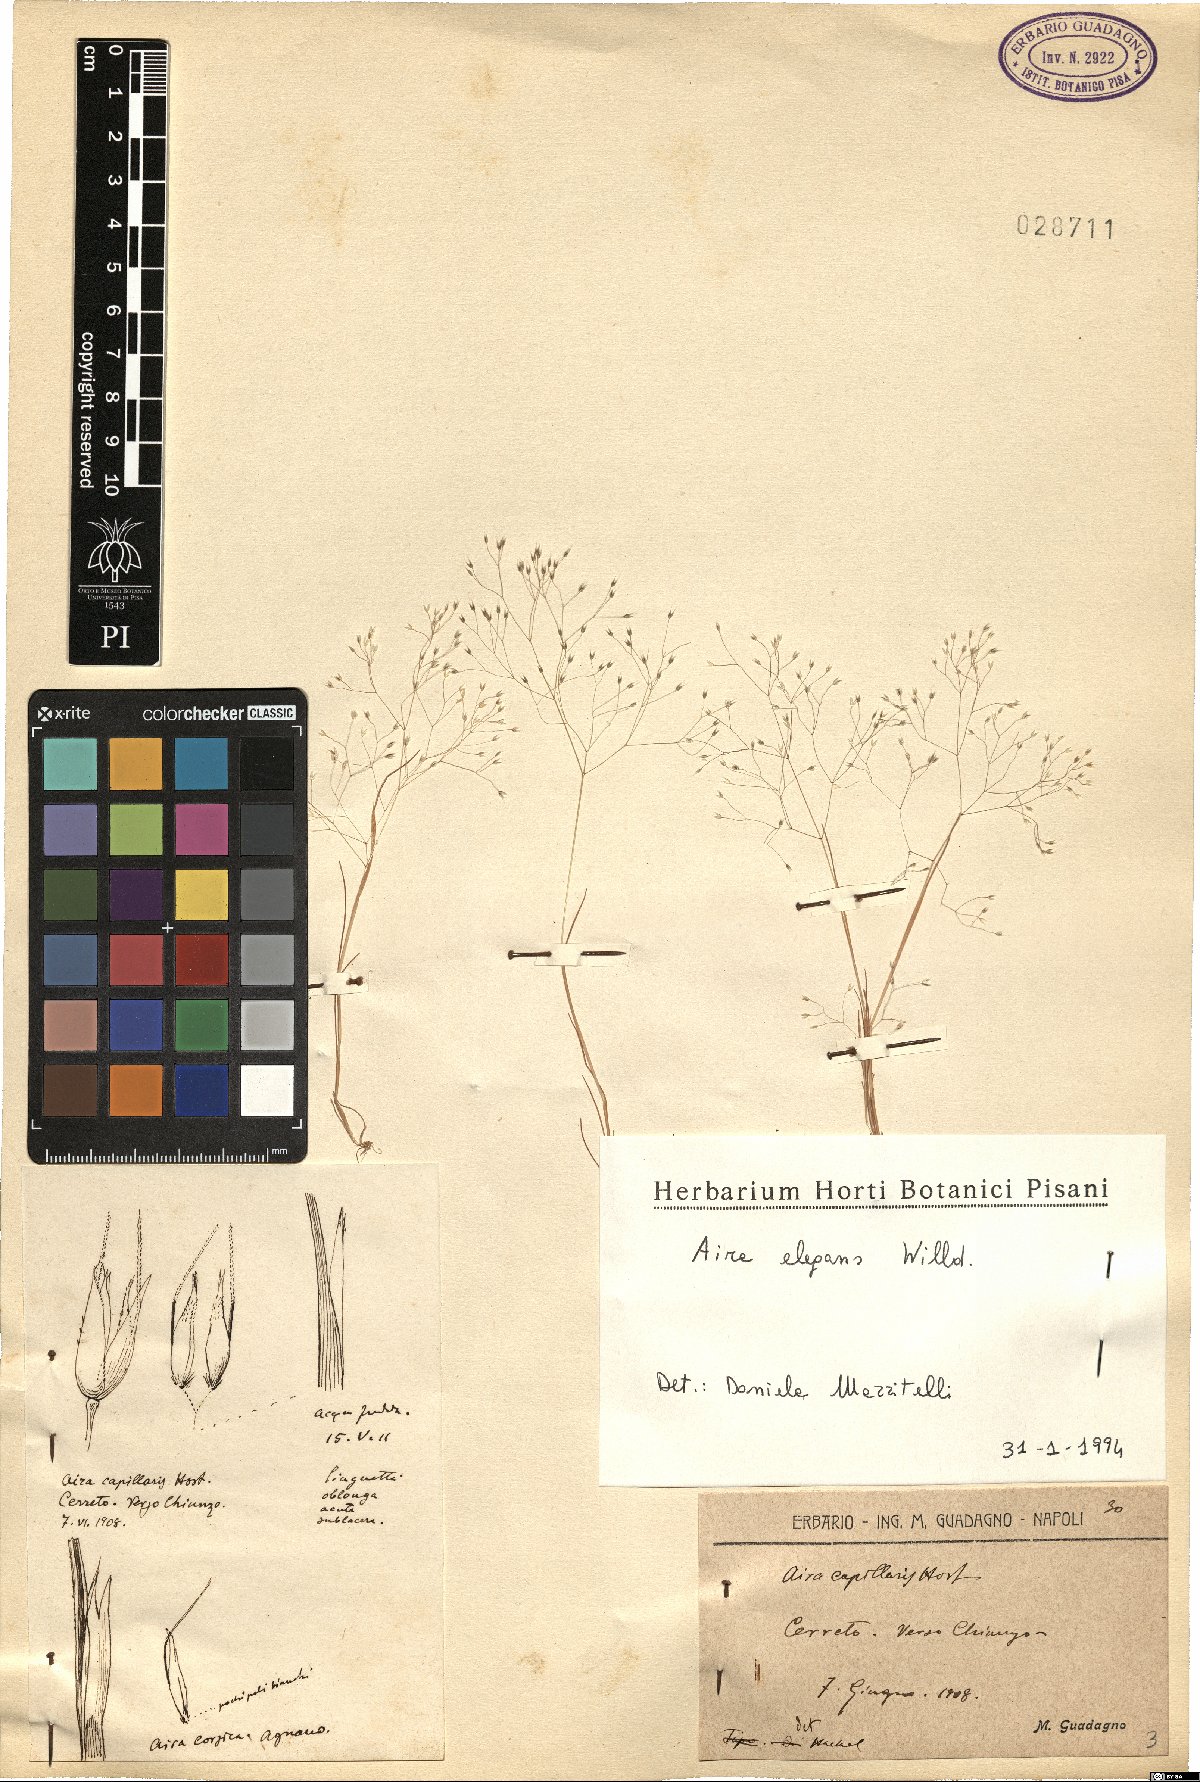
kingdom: Plantae
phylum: Tracheophyta
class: Liliopsida
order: Poales
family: Poaceae
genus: Aira
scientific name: Aira elegans
